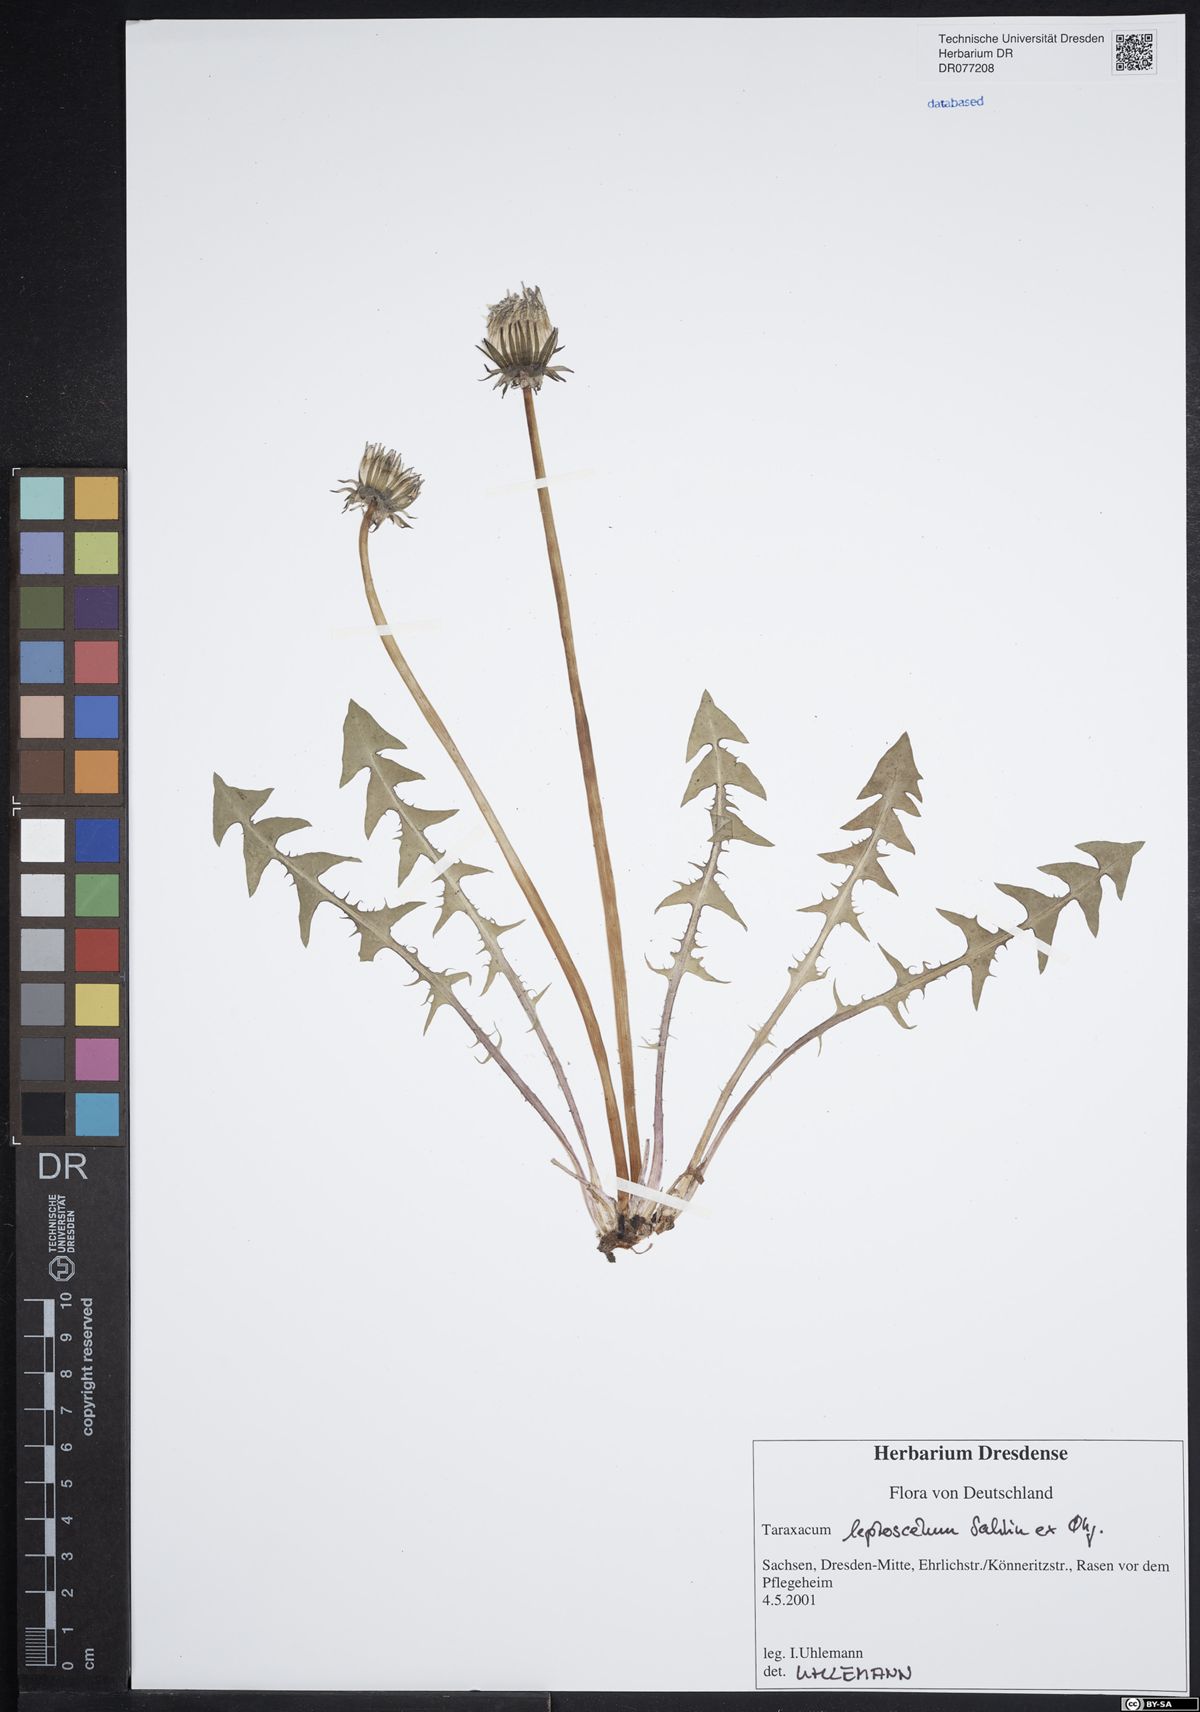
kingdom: Plantae
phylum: Tracheophyta
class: Magnoliopsida
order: Asterales
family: Asteraceae
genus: Taraxacum
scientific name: Taraxacum leptoscelum
